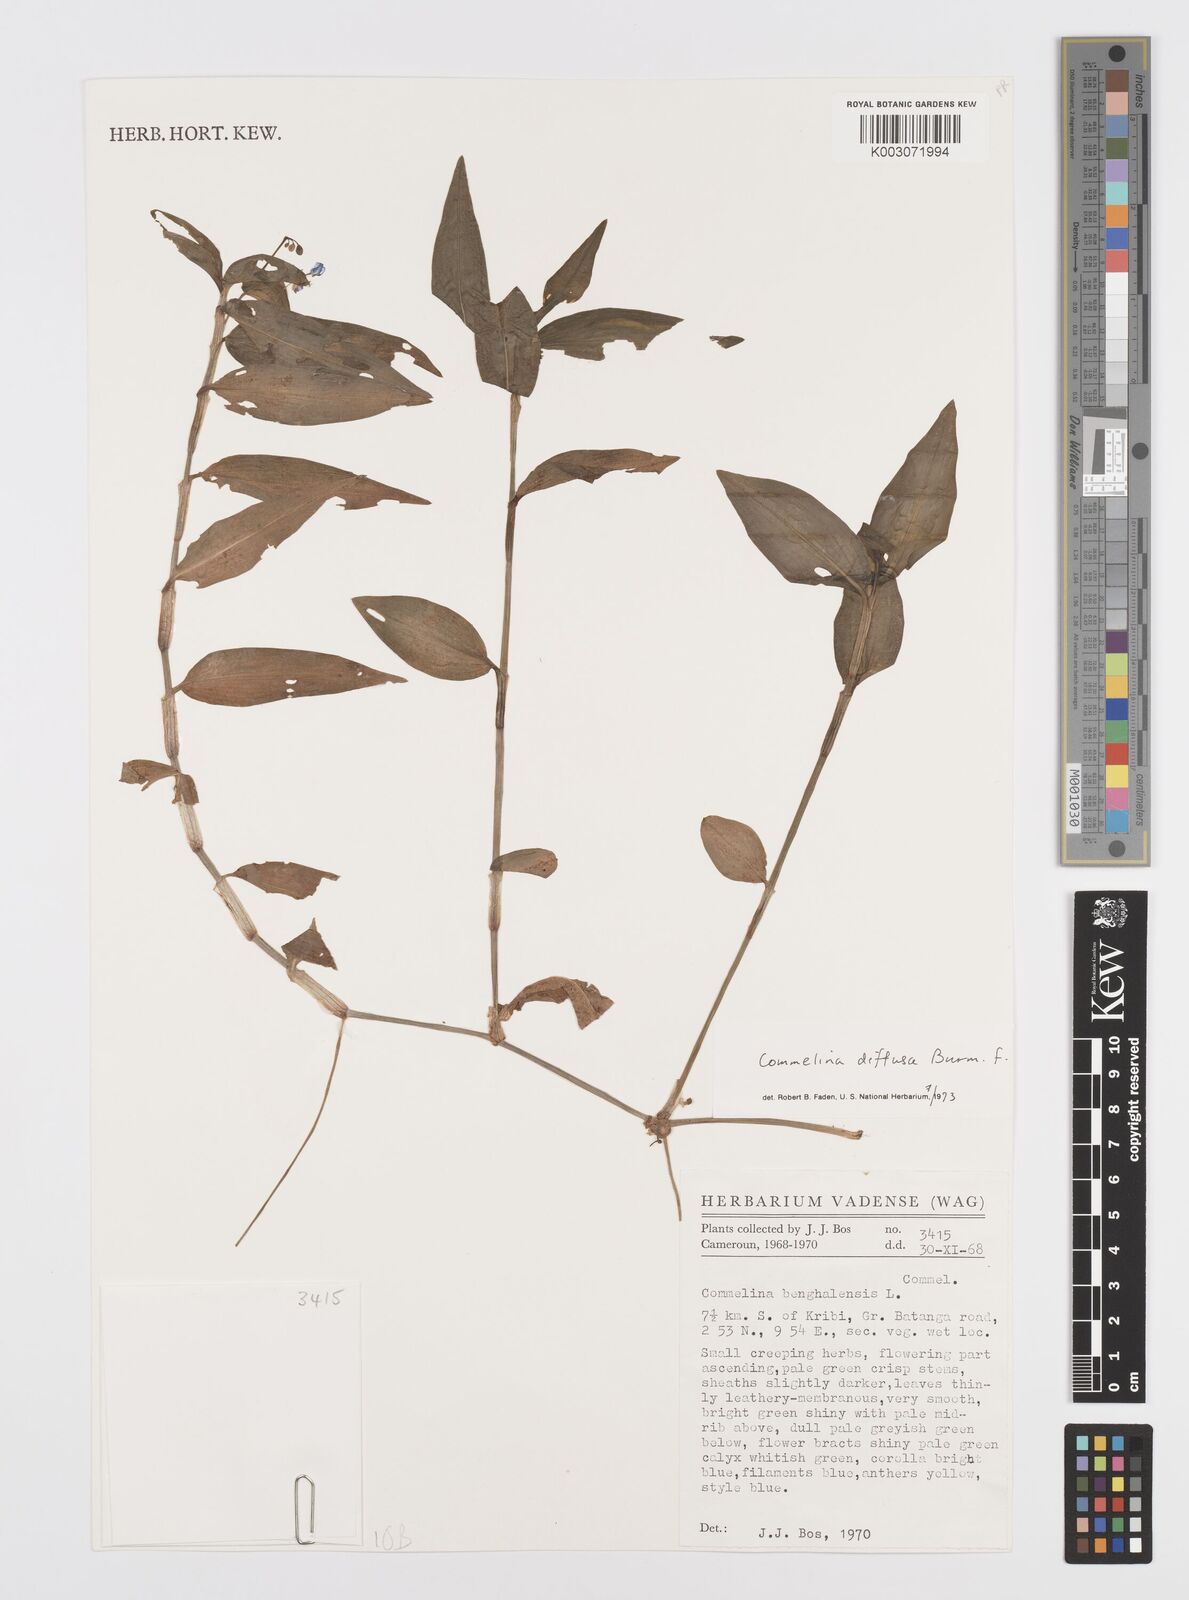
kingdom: Plantae
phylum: Tracheophyta
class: Liliopsida
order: Commelinales
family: Commelinaceae
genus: Commelina
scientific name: Commelina diffusa
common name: Climbing dayflower
